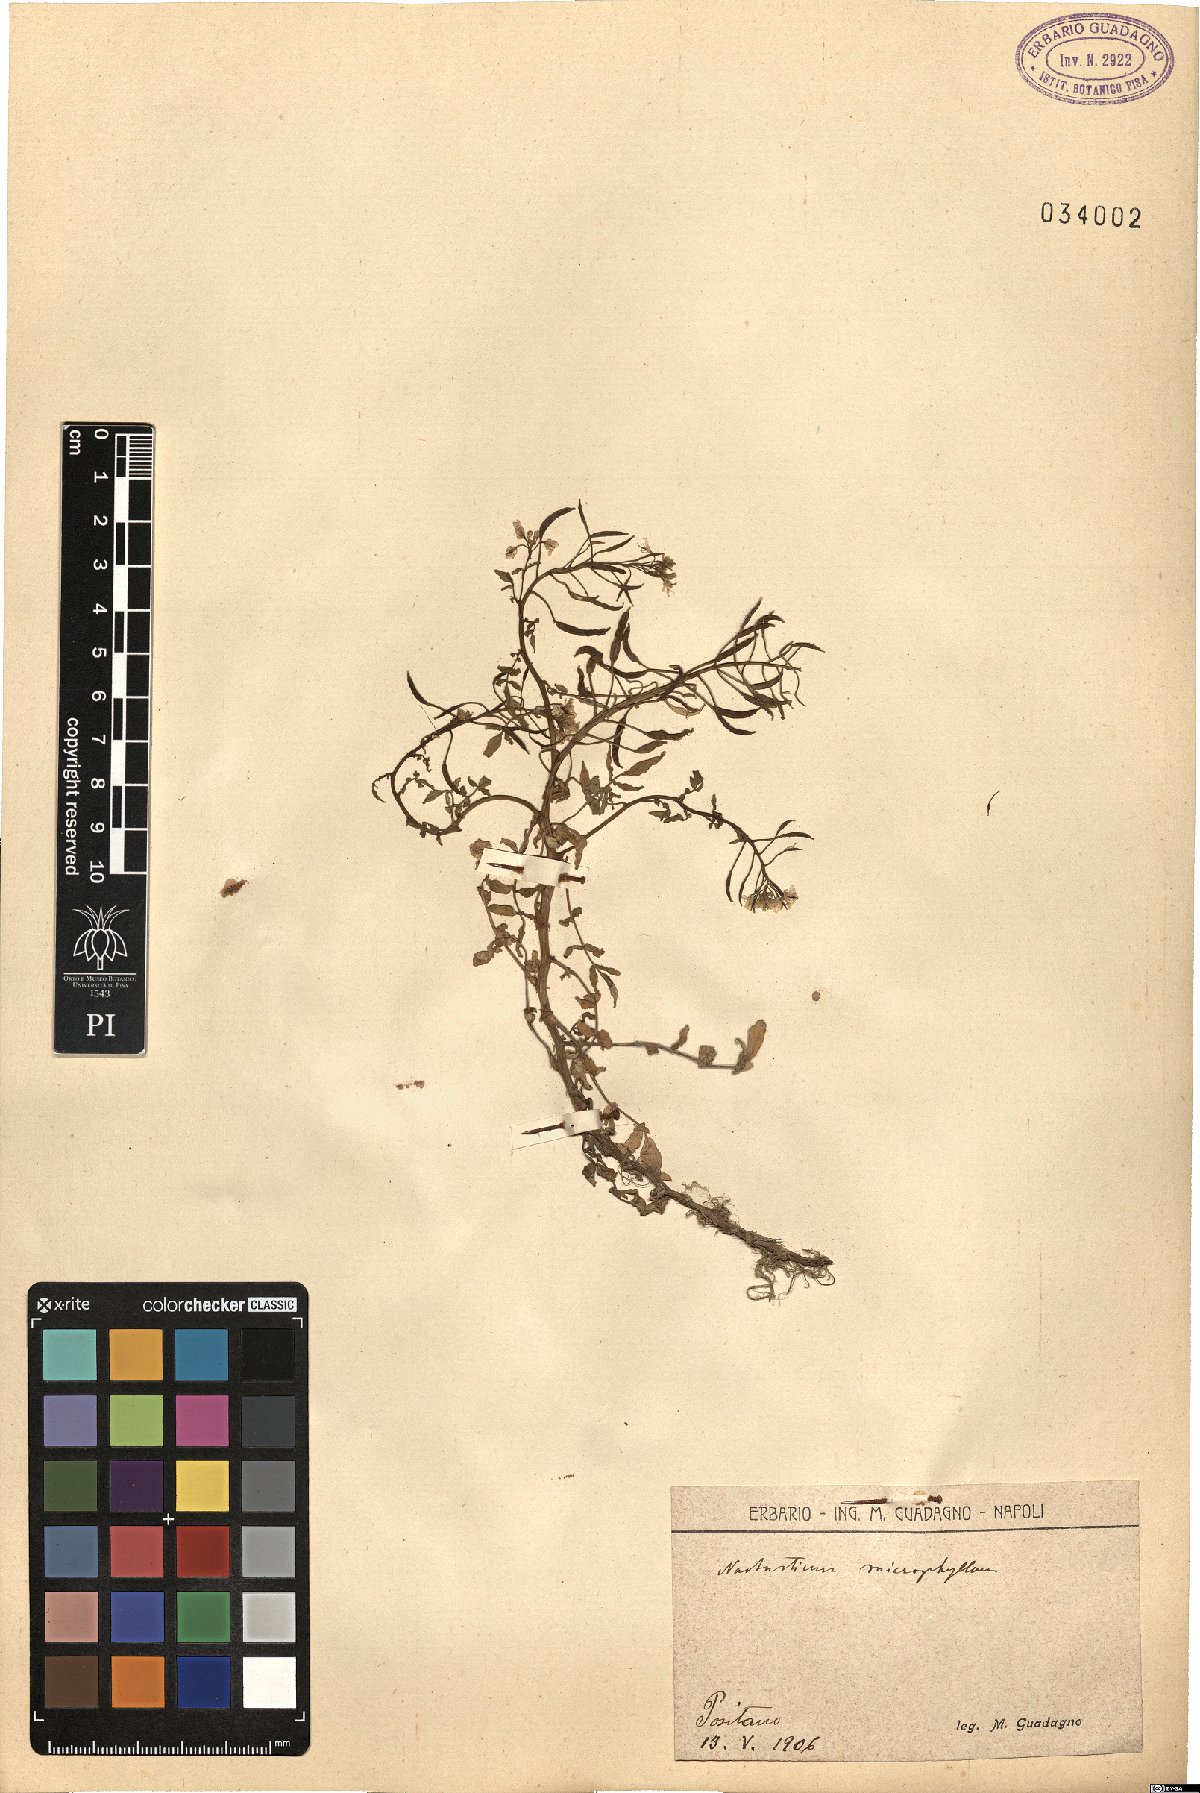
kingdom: Plantae
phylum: Tracheophyta
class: Magnoliopsida
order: Brassicales
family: Brassicaceae
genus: Nasturtium
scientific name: Nasturtium microphyllum
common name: Onerow yellowcress
